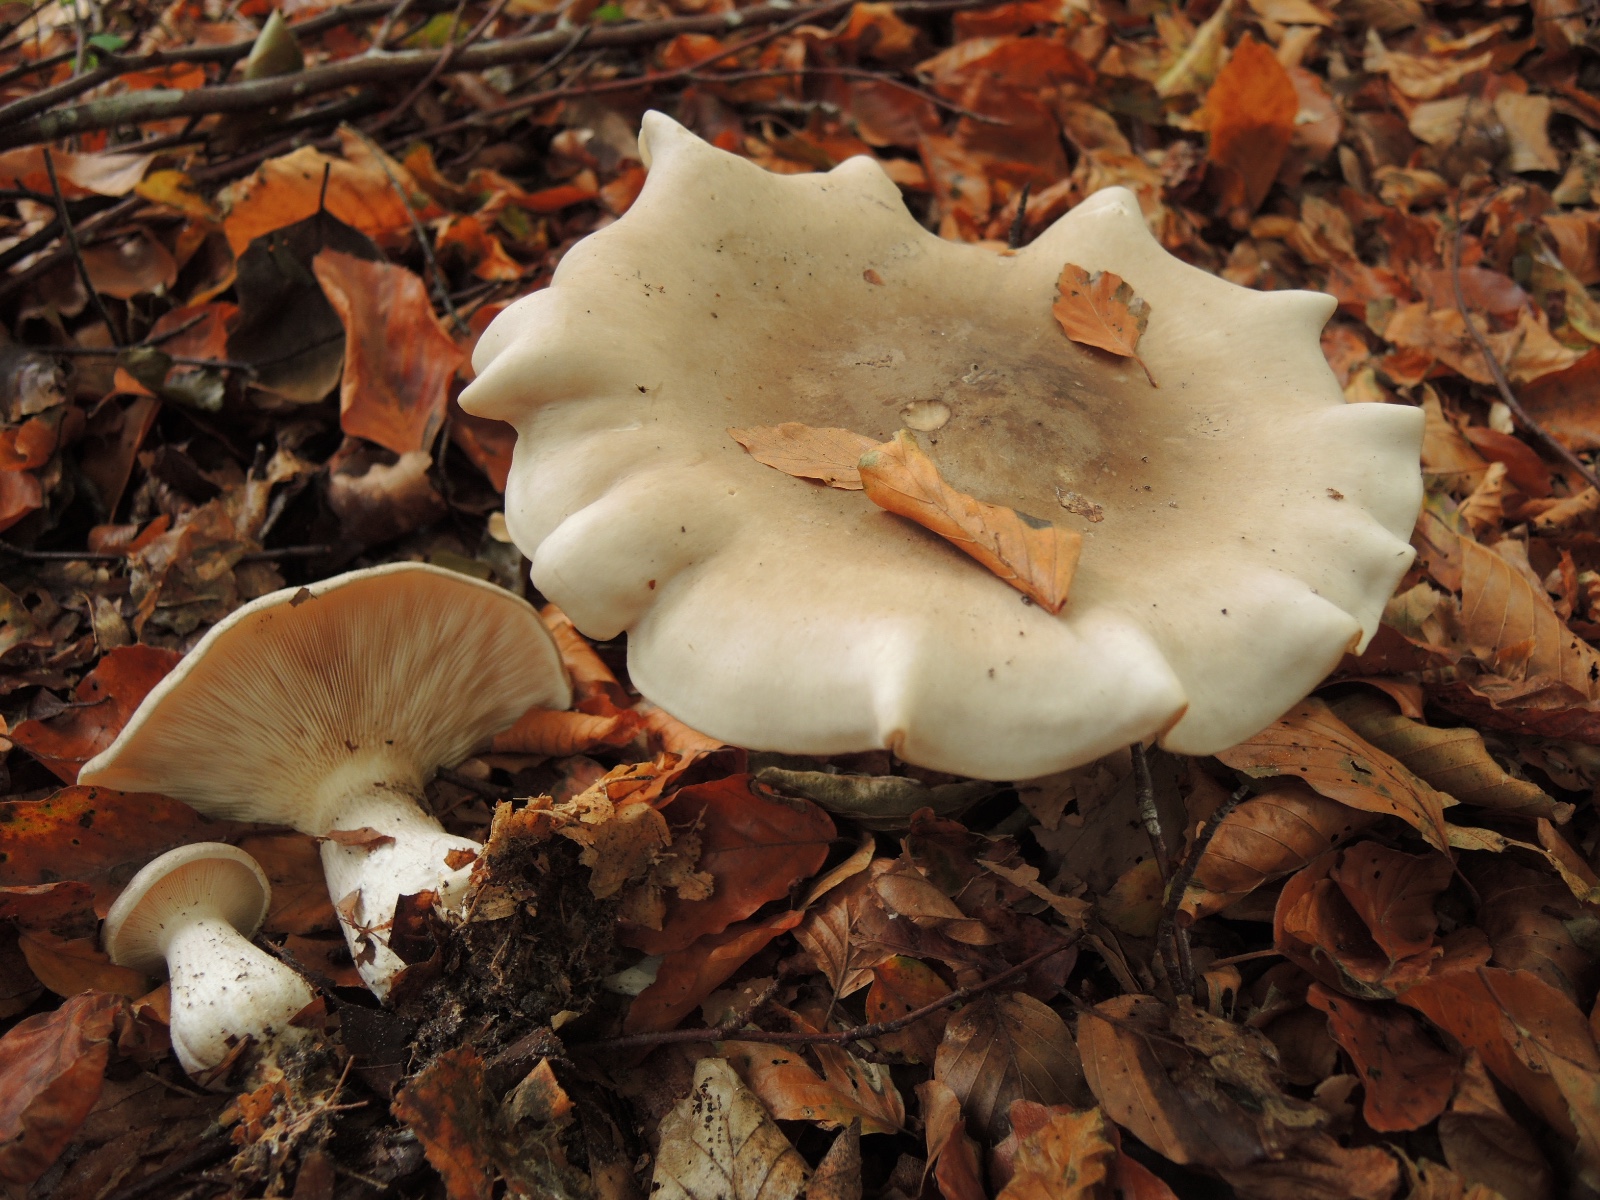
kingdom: Fungi
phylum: Basidiomycota
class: Agaricomycetes
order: Agaricales
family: Tricholomataceae
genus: Clitocybe
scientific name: Clitocybe nebularis
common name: tåge-tragthat
